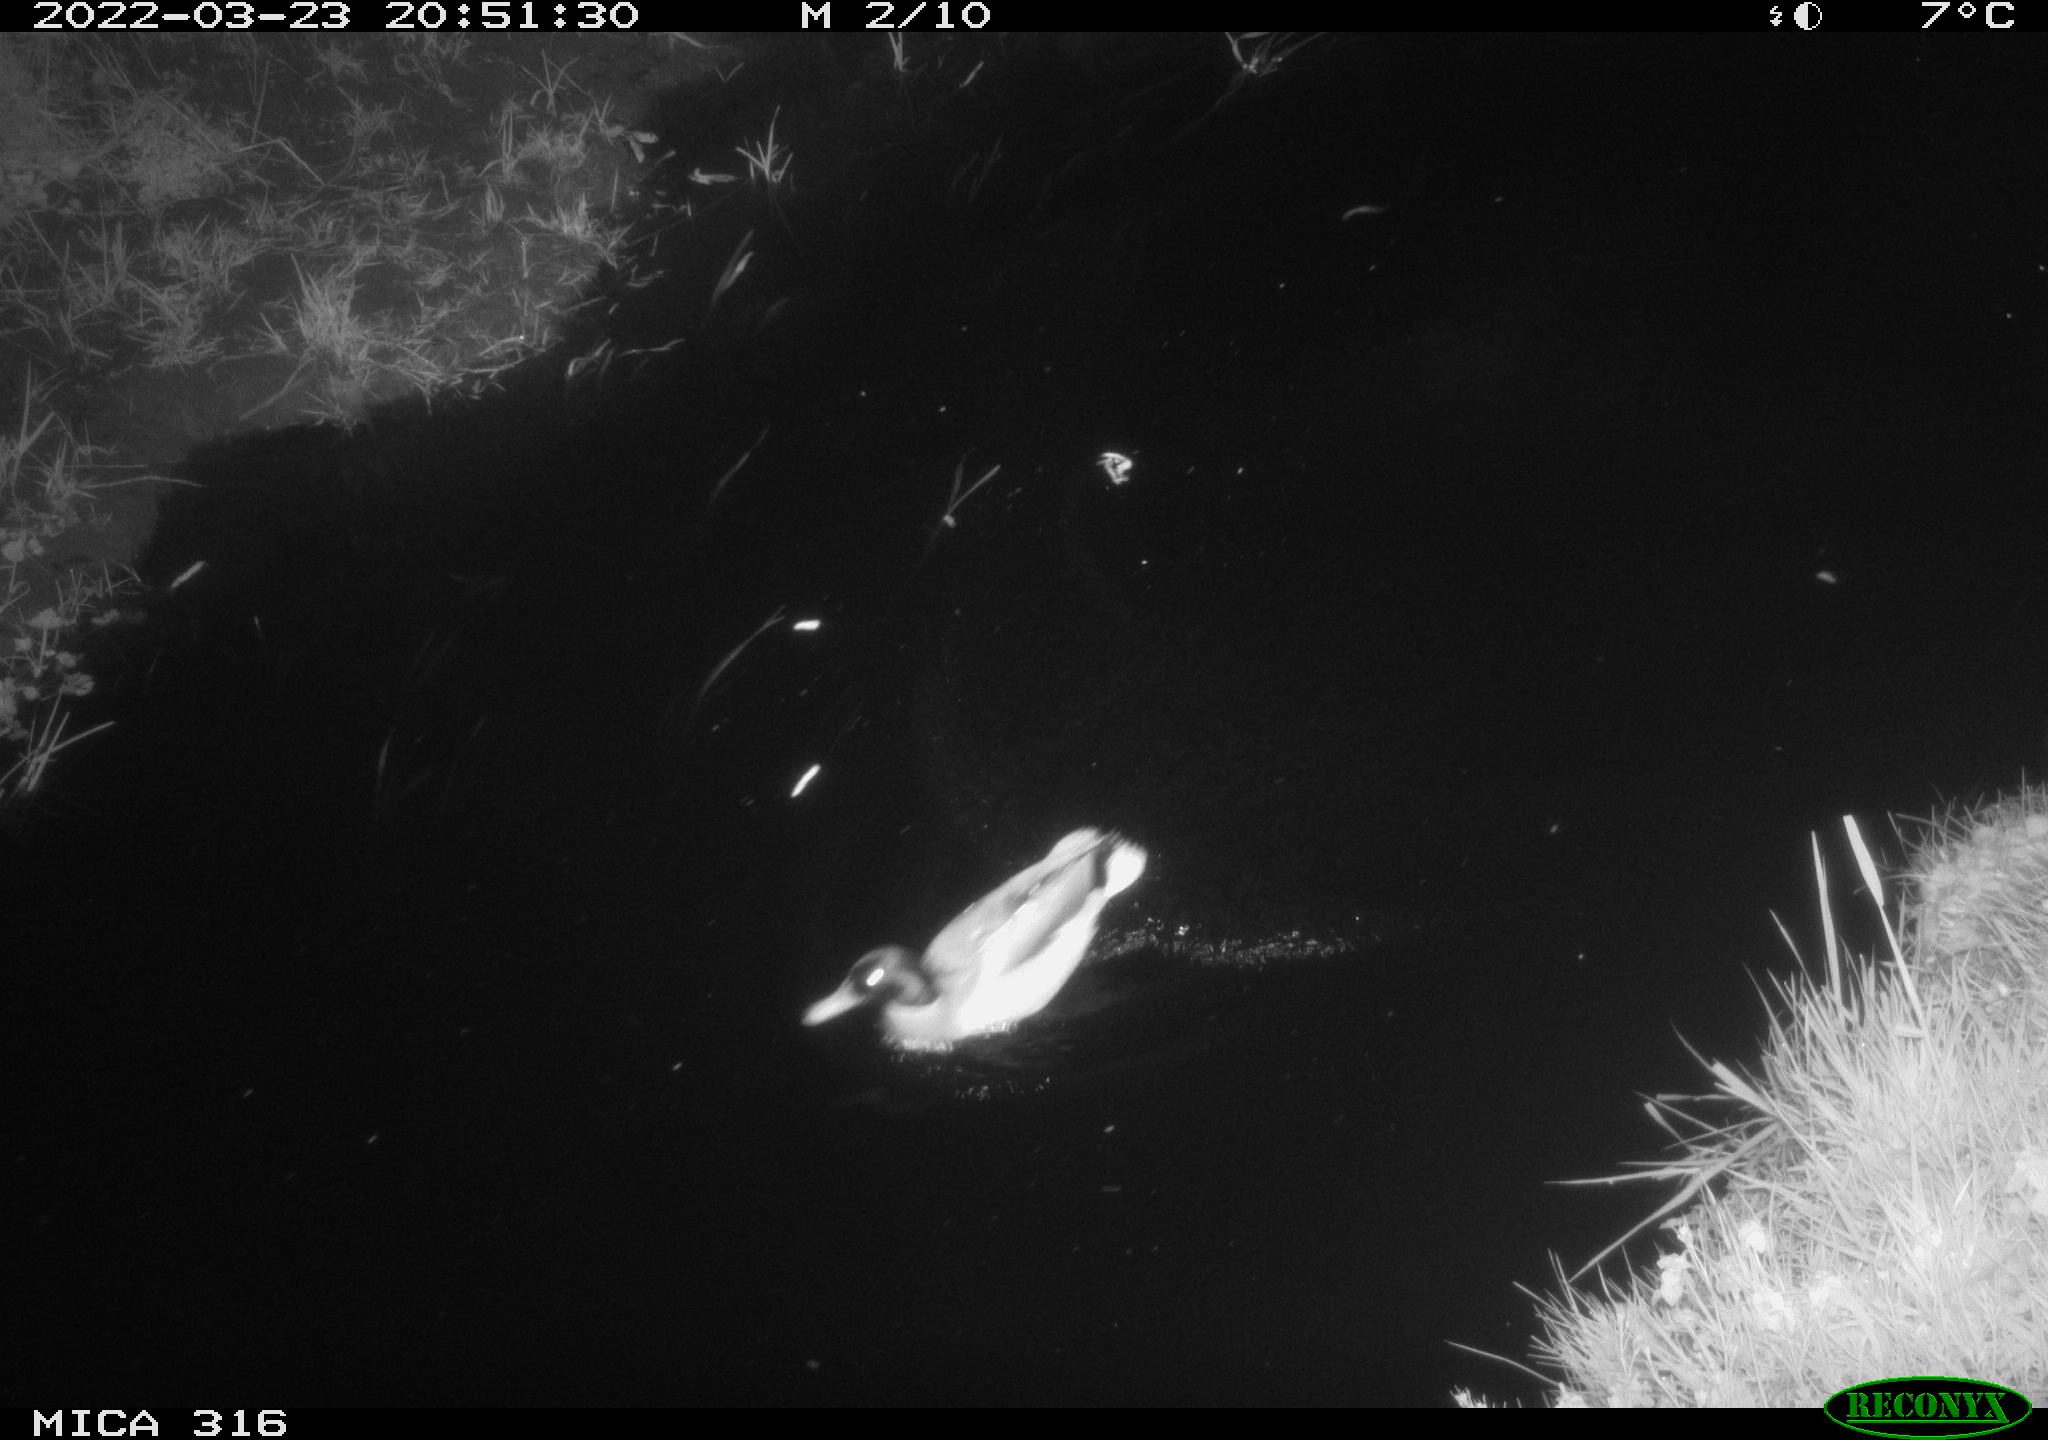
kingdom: Animalia
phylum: Chordata
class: Aves
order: Anseriformes
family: Anatidae
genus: Anas
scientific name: Anas platyrhynchos
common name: Mallard
